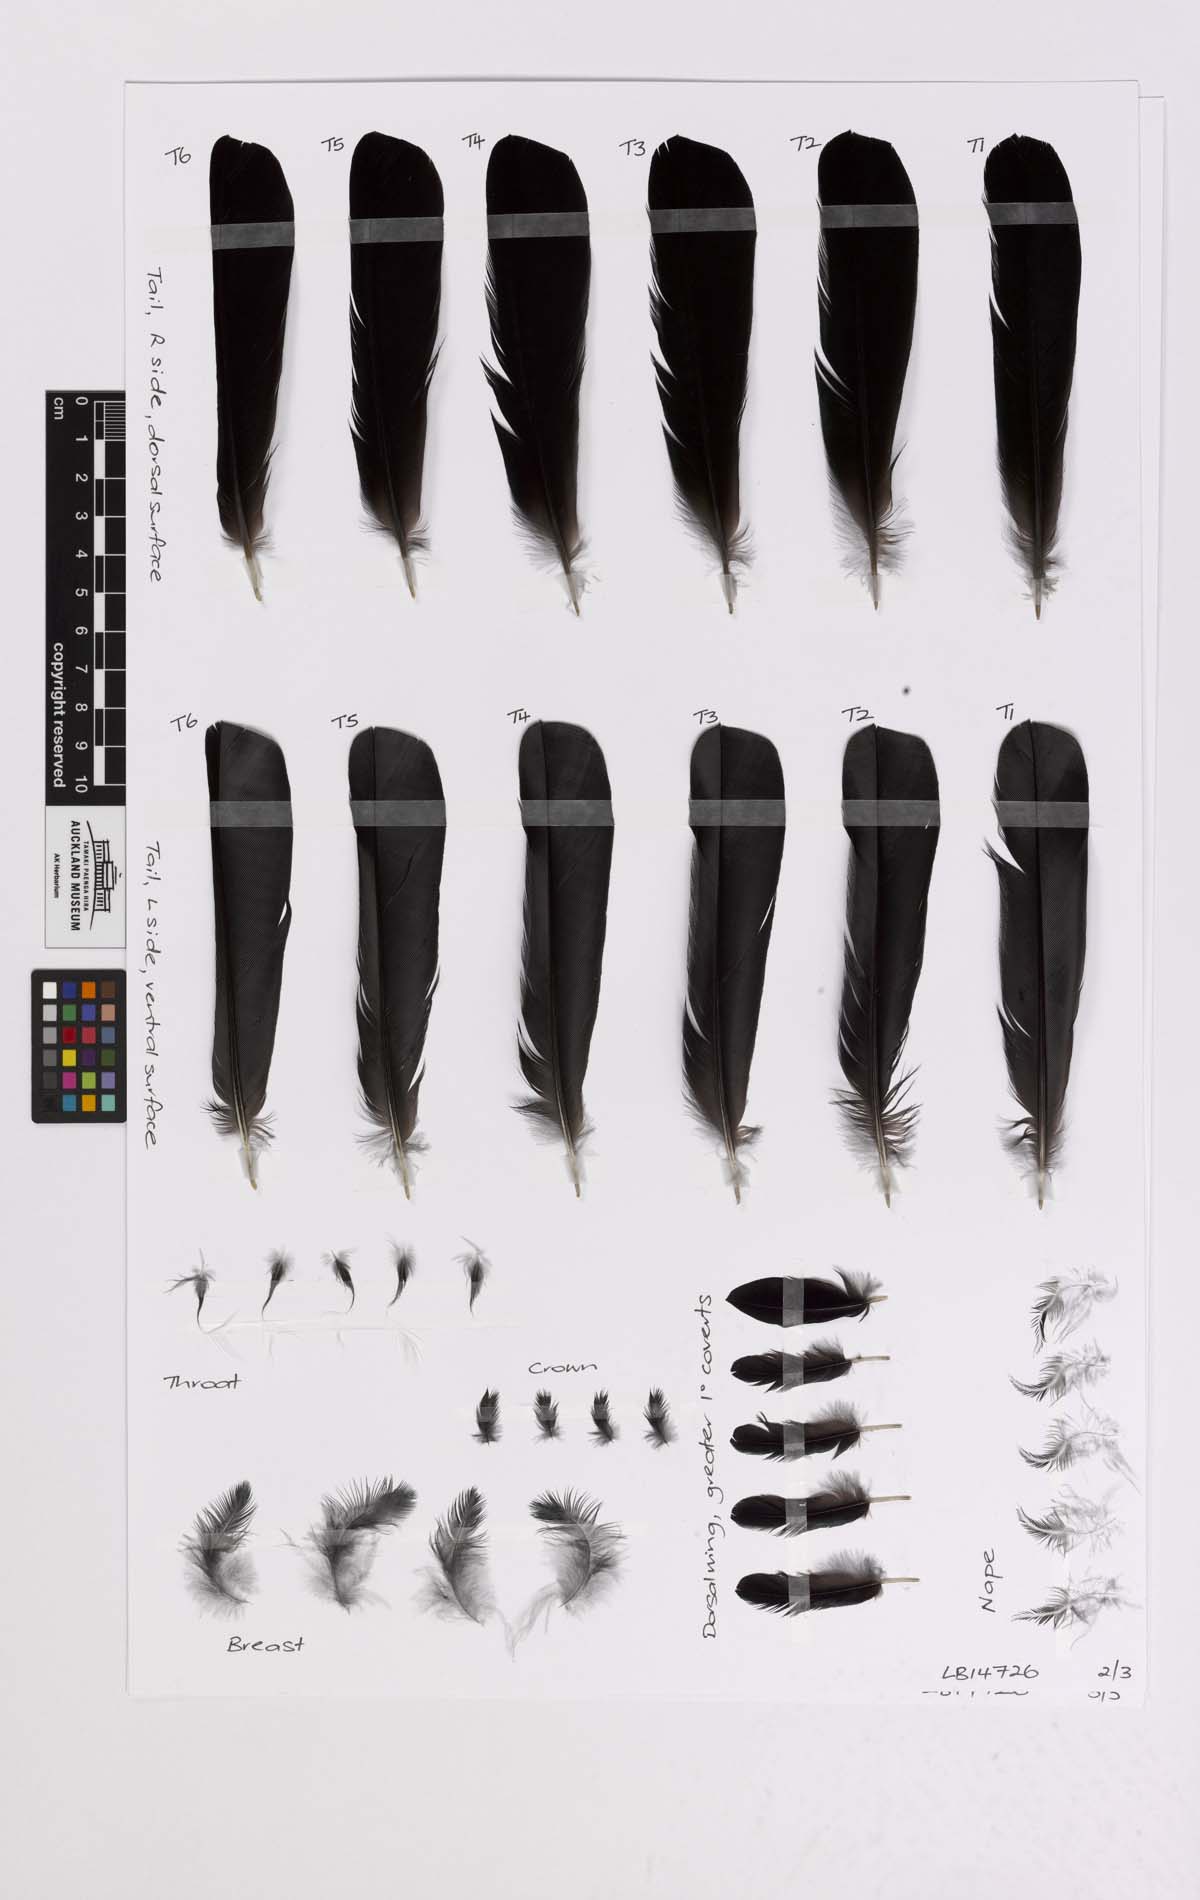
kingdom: Animalia
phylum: Chordata
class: Aves
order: Passeriformes
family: Meliphagidae
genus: Prosthemadera
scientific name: Prosthemadera novaeseelandiae
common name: Tui
